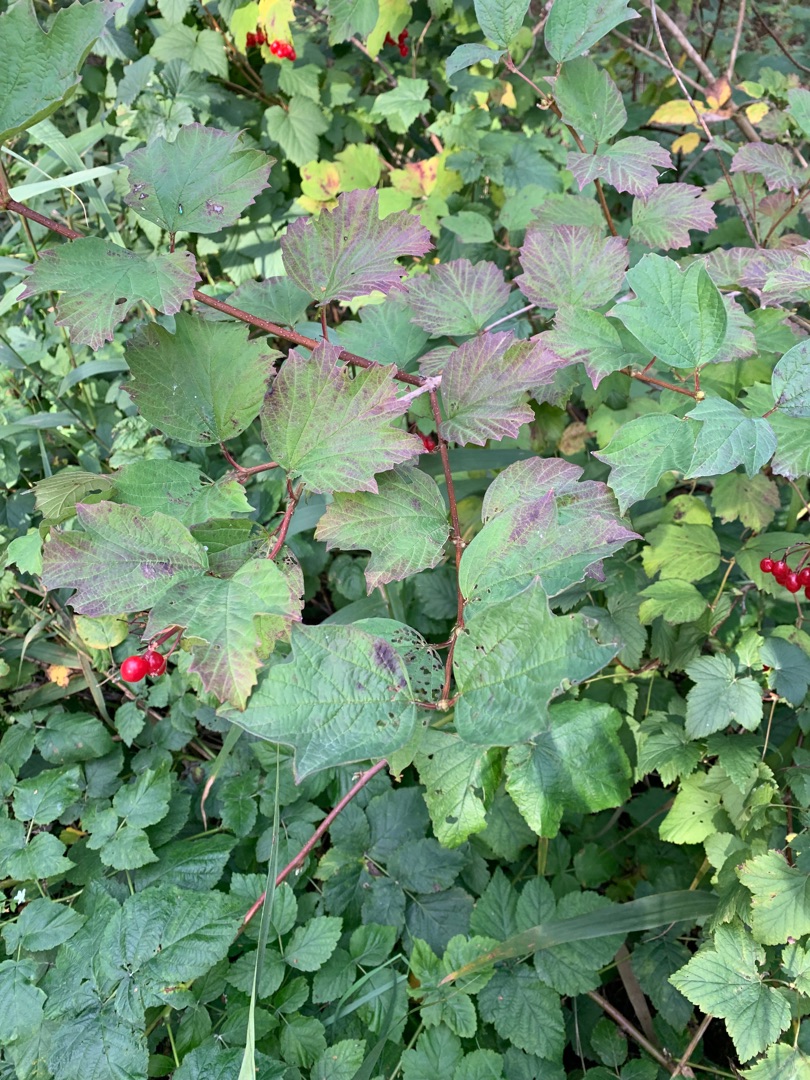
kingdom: Plantae
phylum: Tracheophyta
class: Magnoliopsida
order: Dipsacales
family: Viburnaceae
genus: Viburnum
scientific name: Viburnum opulus
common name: Kvalkved
